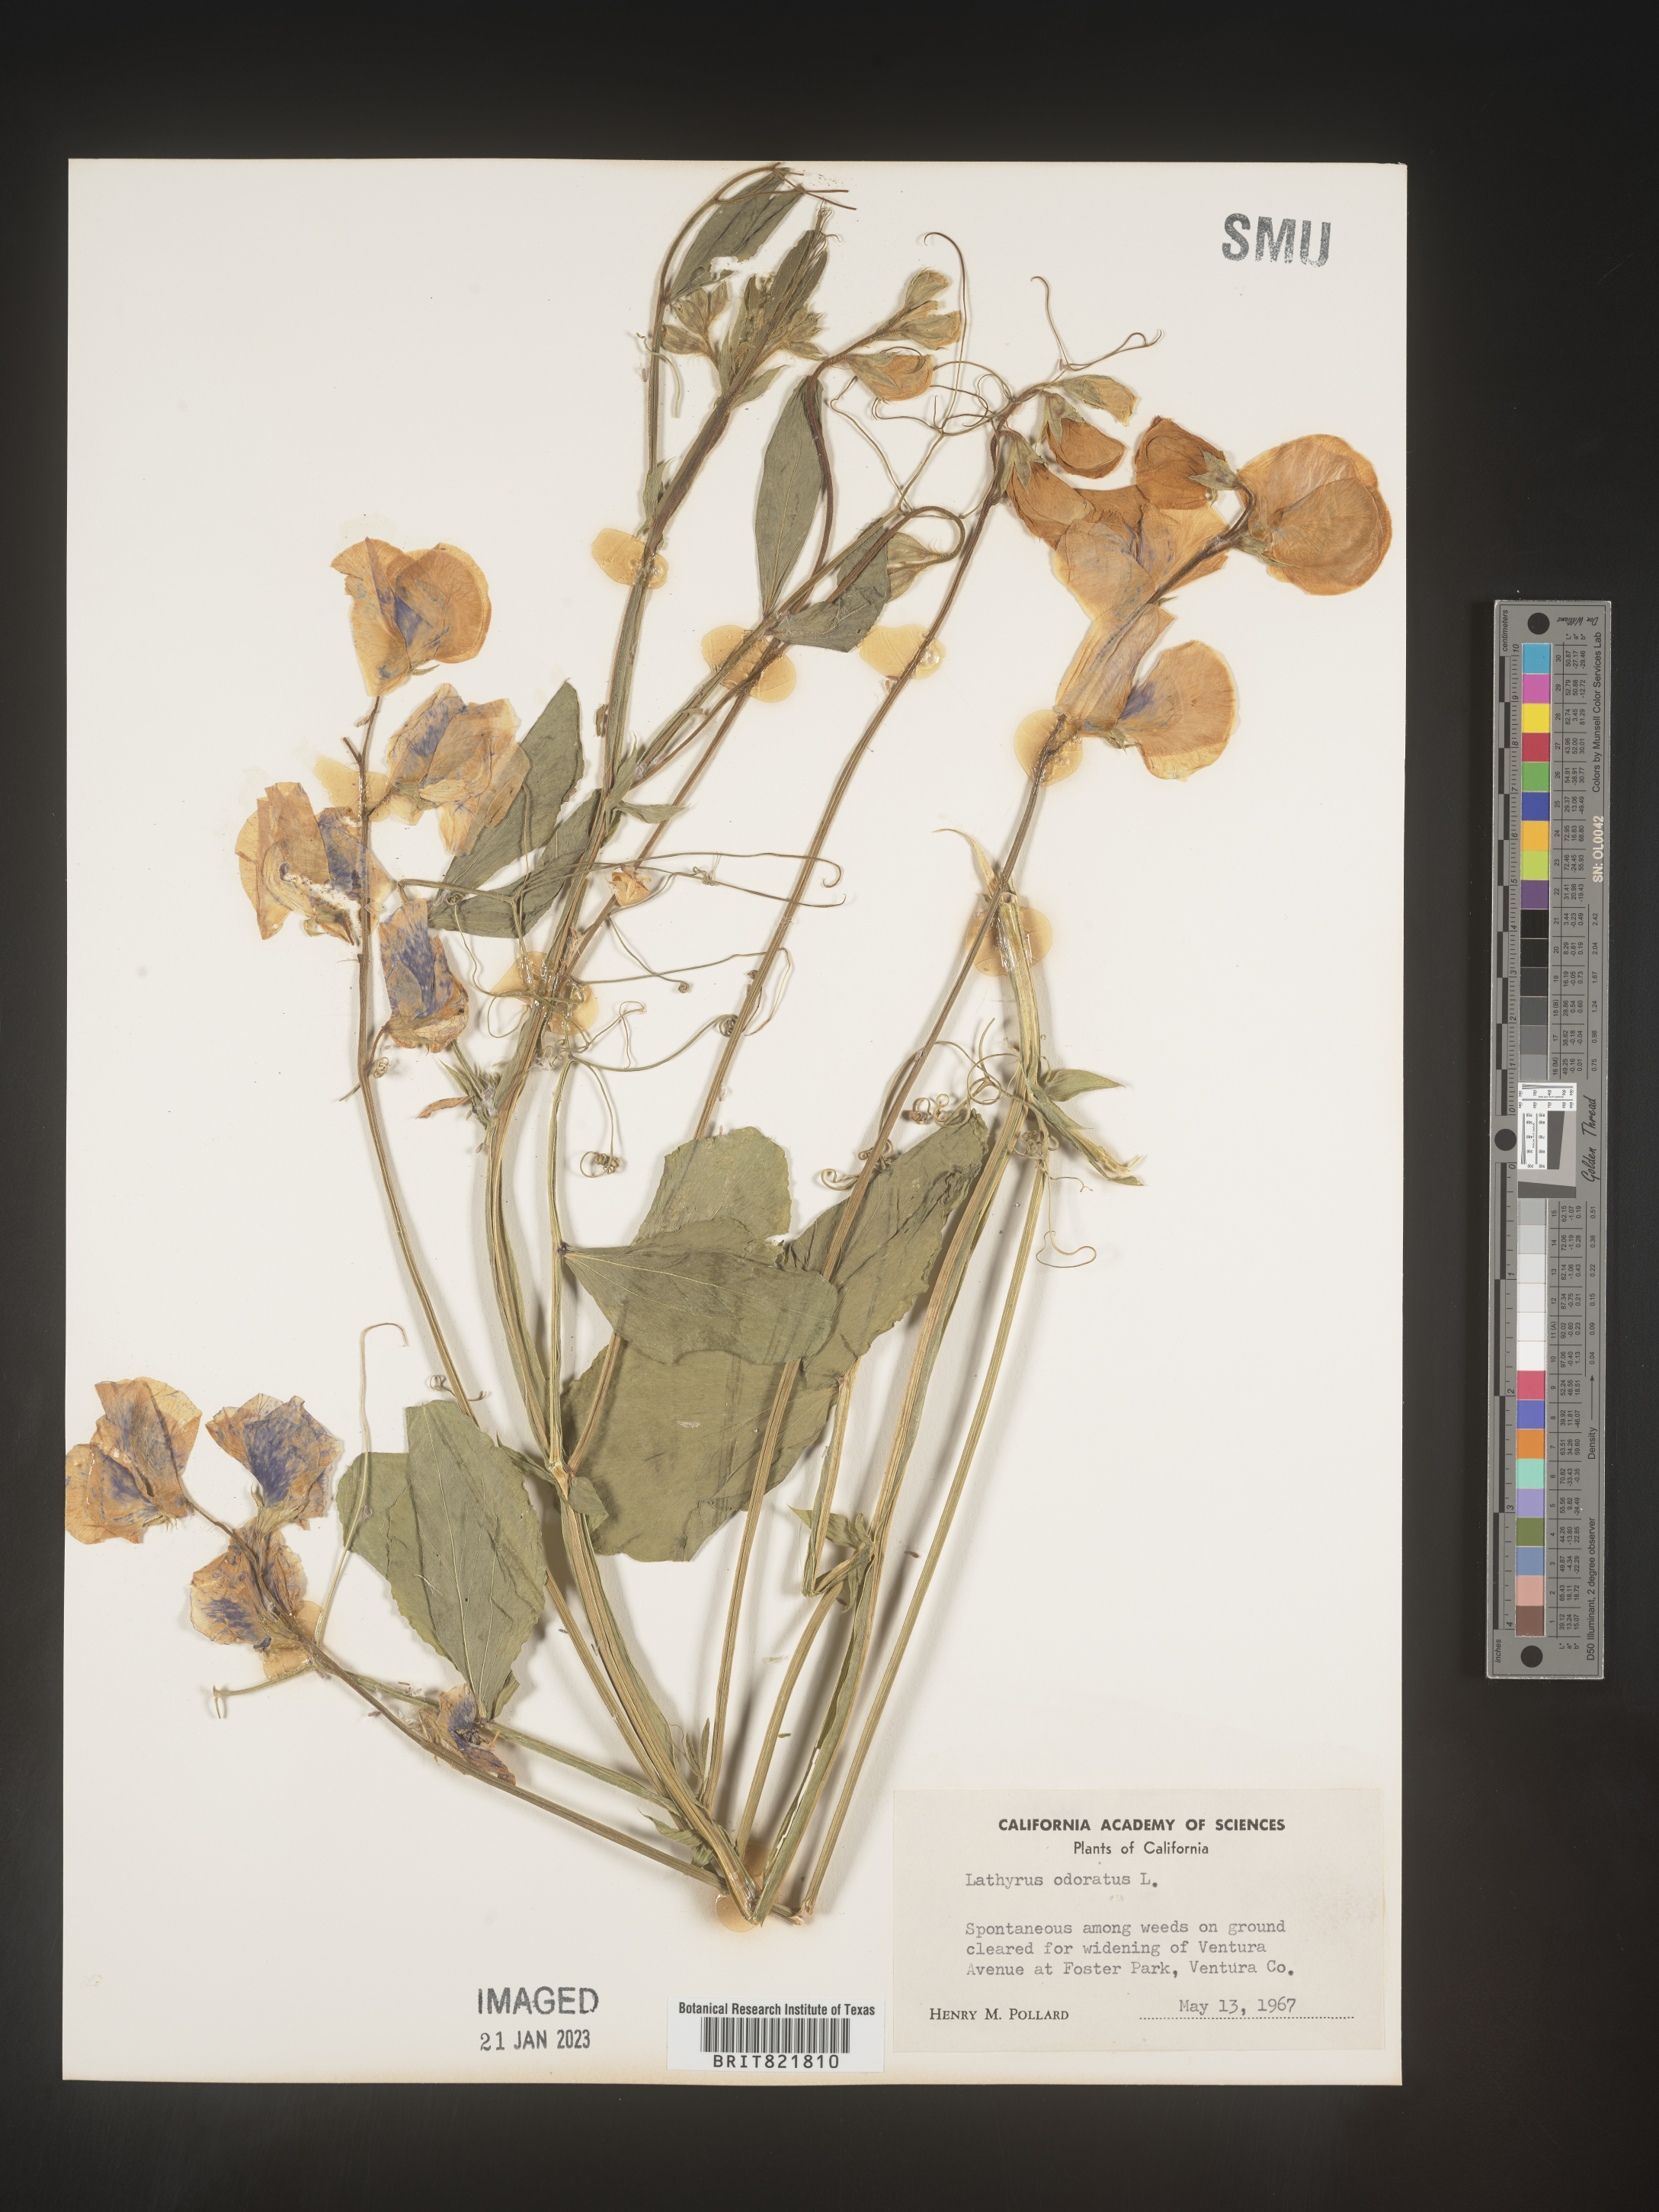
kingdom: Plantae
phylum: Tracheophyta
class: Magnoliopsida
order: Fabales
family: Fabaceae
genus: Lathyrus
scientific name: Lathyrus
